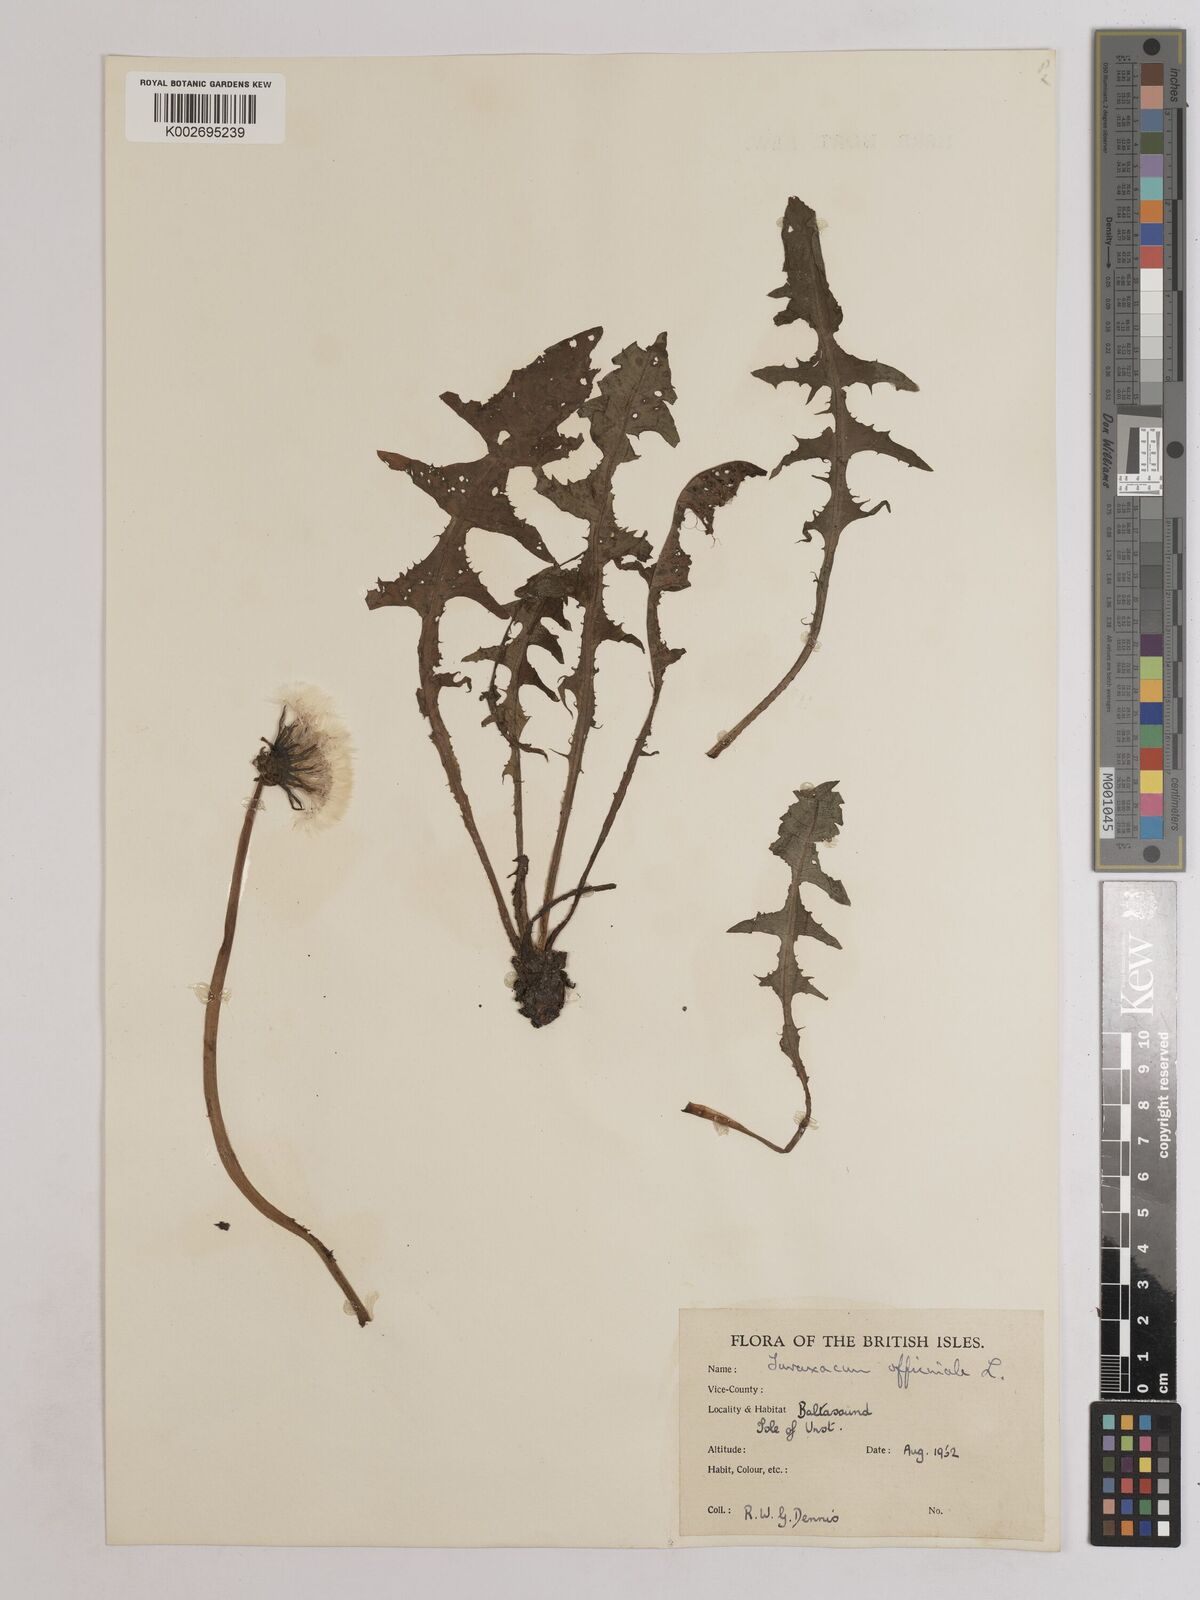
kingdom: Plantae
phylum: Tracheophyta
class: Magnoliopsida
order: Asterales
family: Asteraceae
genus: Taraxacum
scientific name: Taraxacum officinale
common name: Common dandelion
